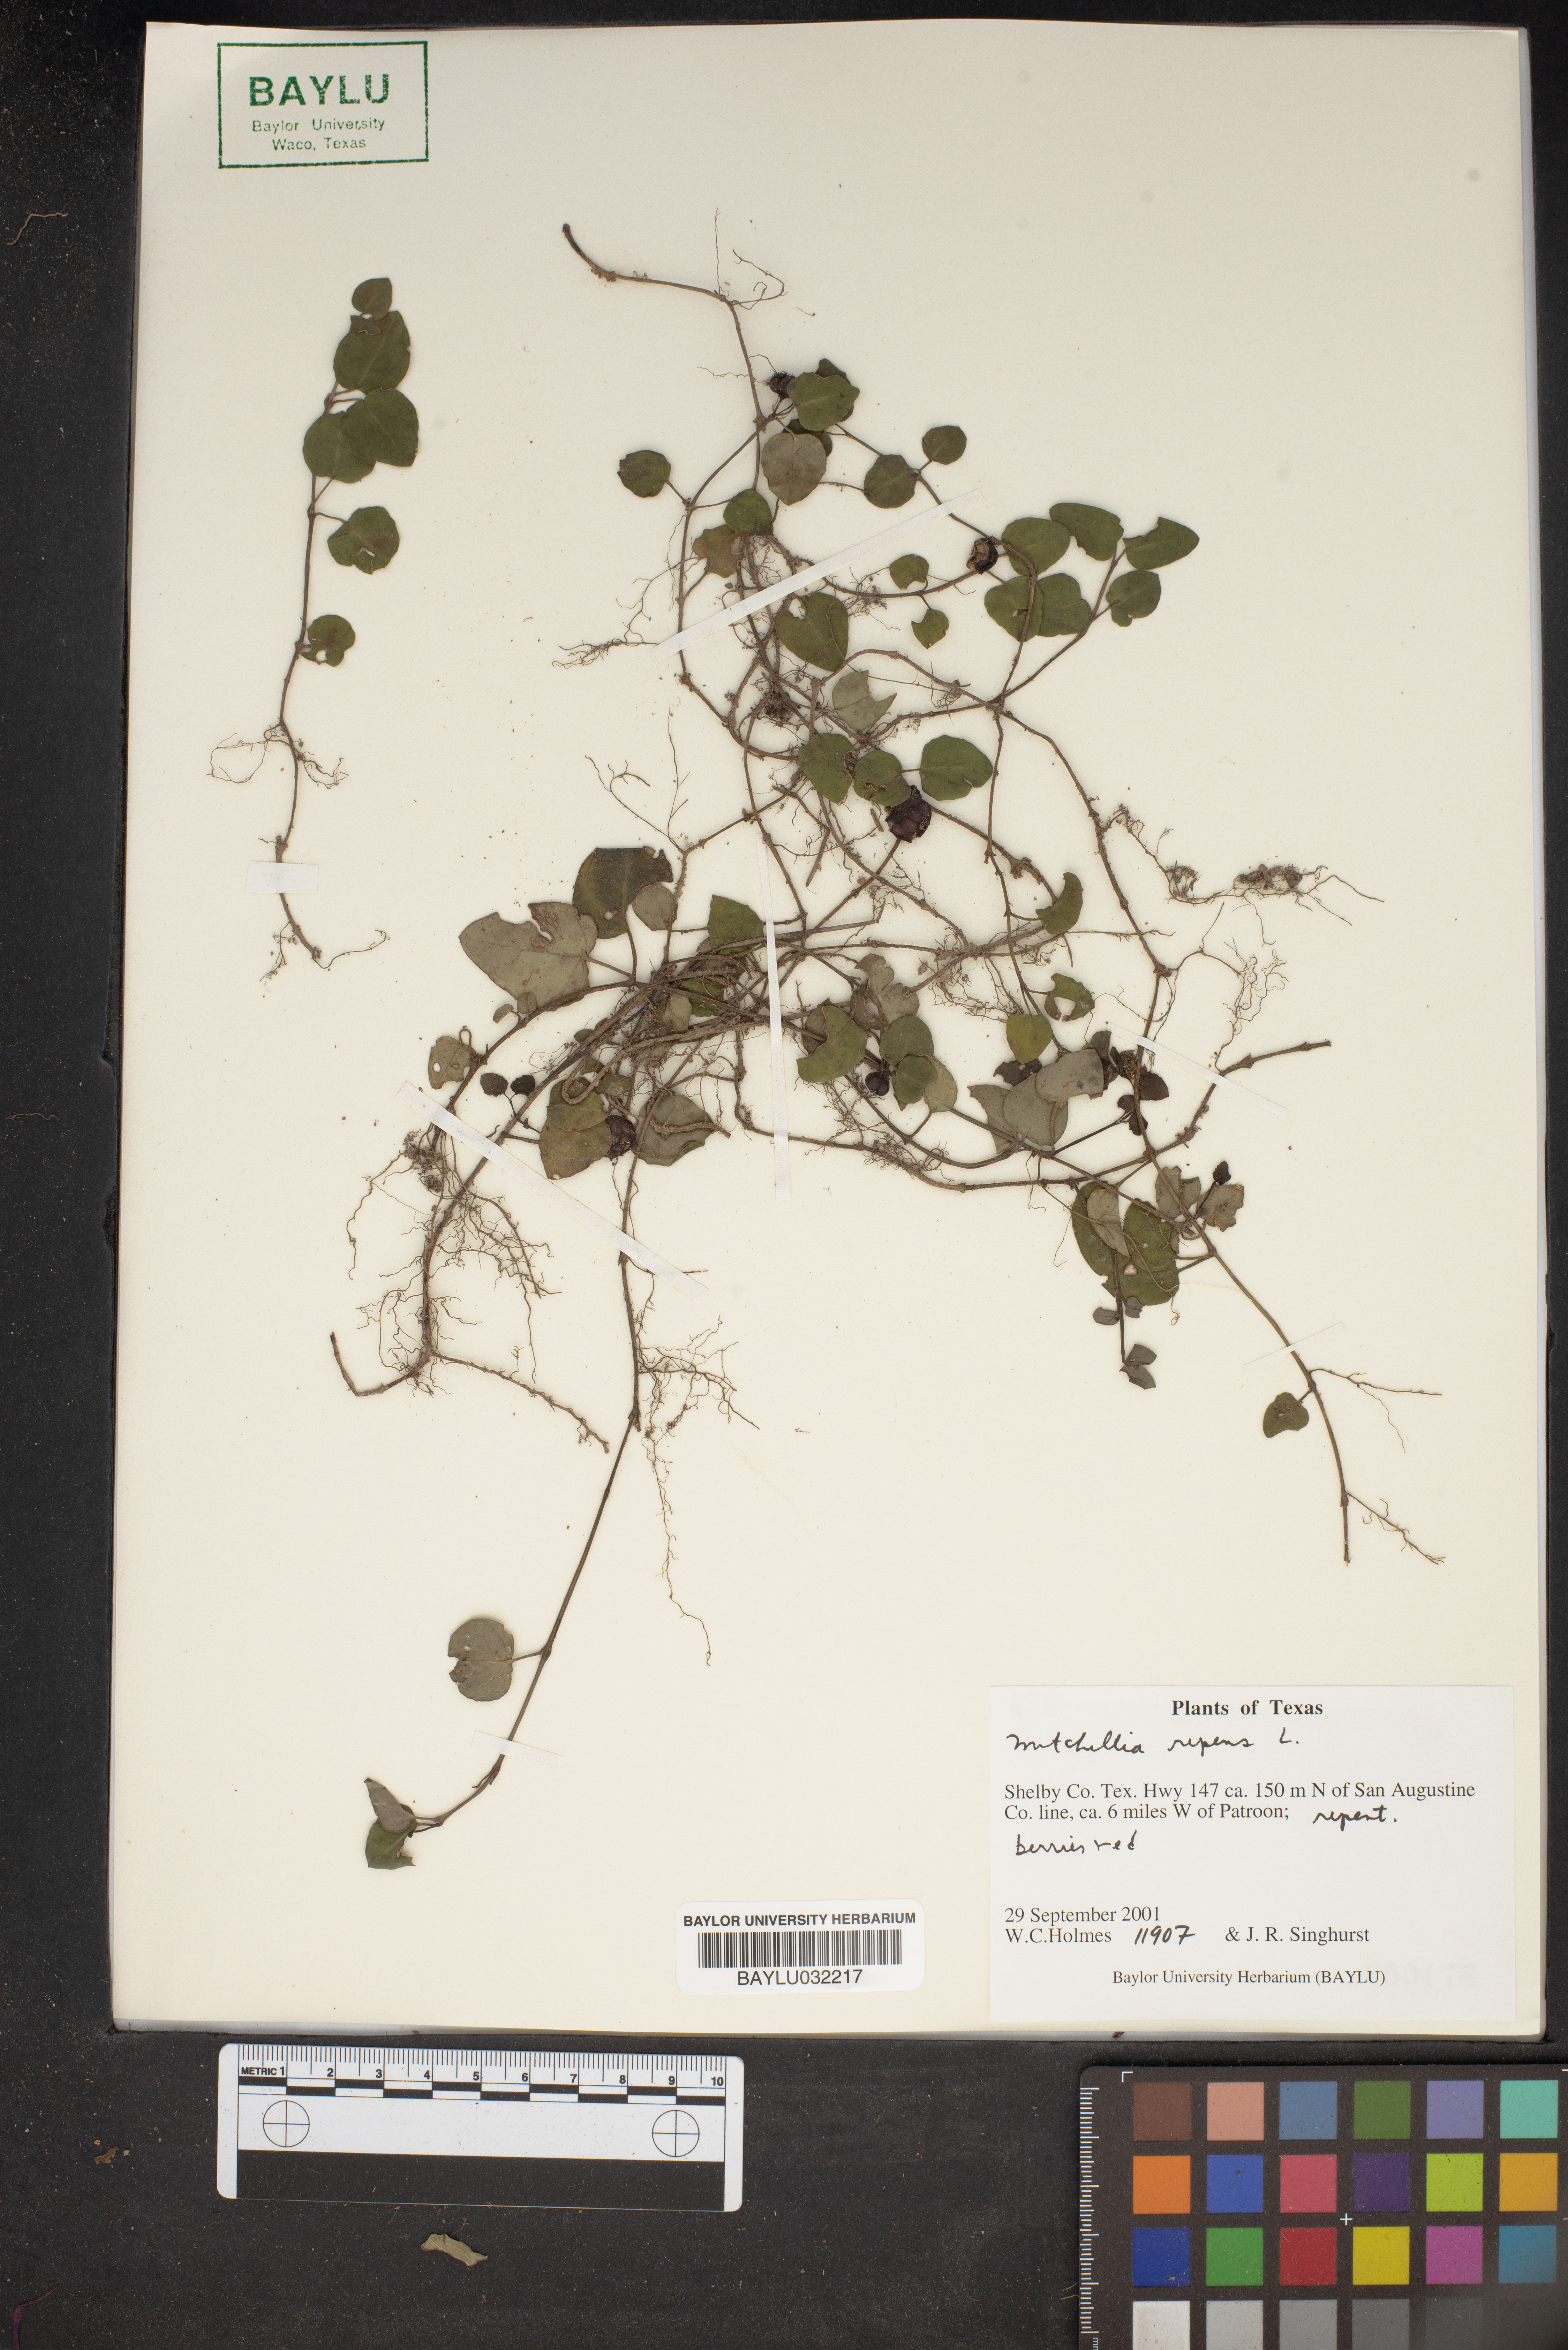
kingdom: Plantae
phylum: Tracheophyta
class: Magnoliopsida
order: Gentianales
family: Rubiaceae
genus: Mitchella
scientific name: Mitchella repens
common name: Partridge-berry
